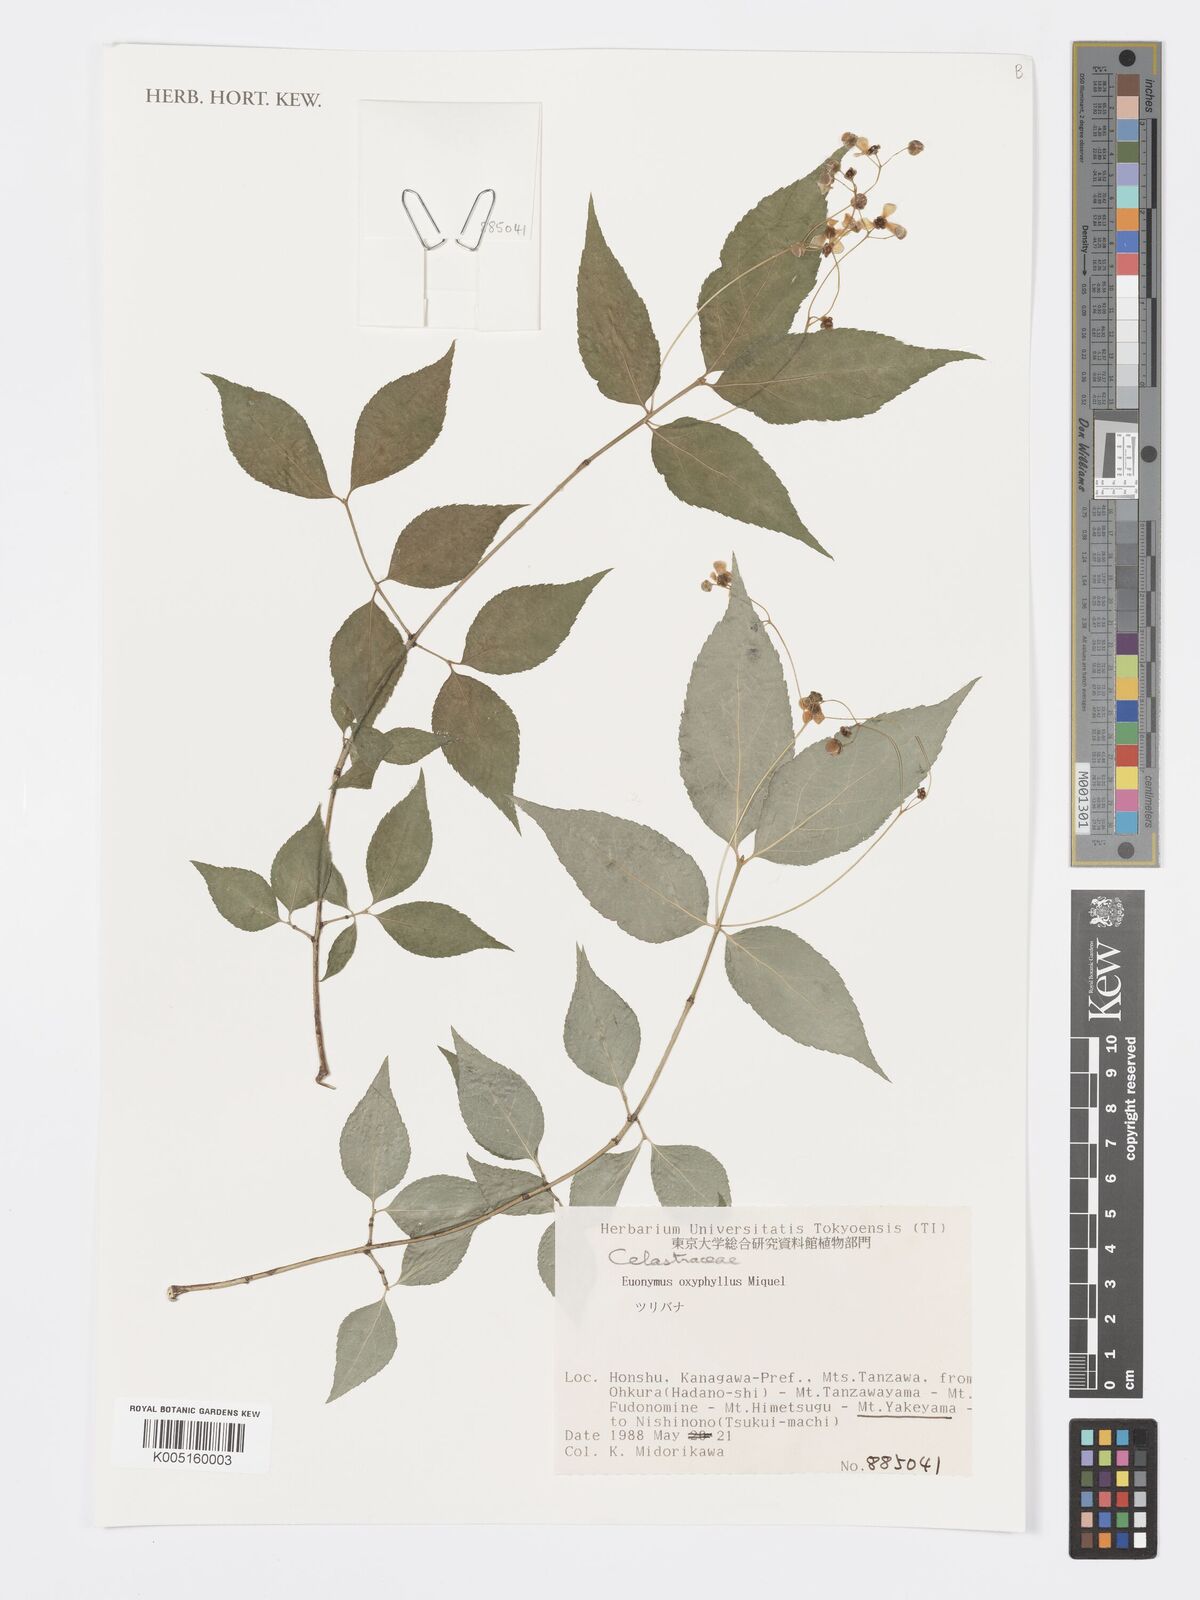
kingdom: Plantae
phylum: Tracheophyta
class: Magnoliopsida
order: Celastrales
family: Celastraceae
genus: Euonymus
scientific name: Euonymus oxyphyllus
